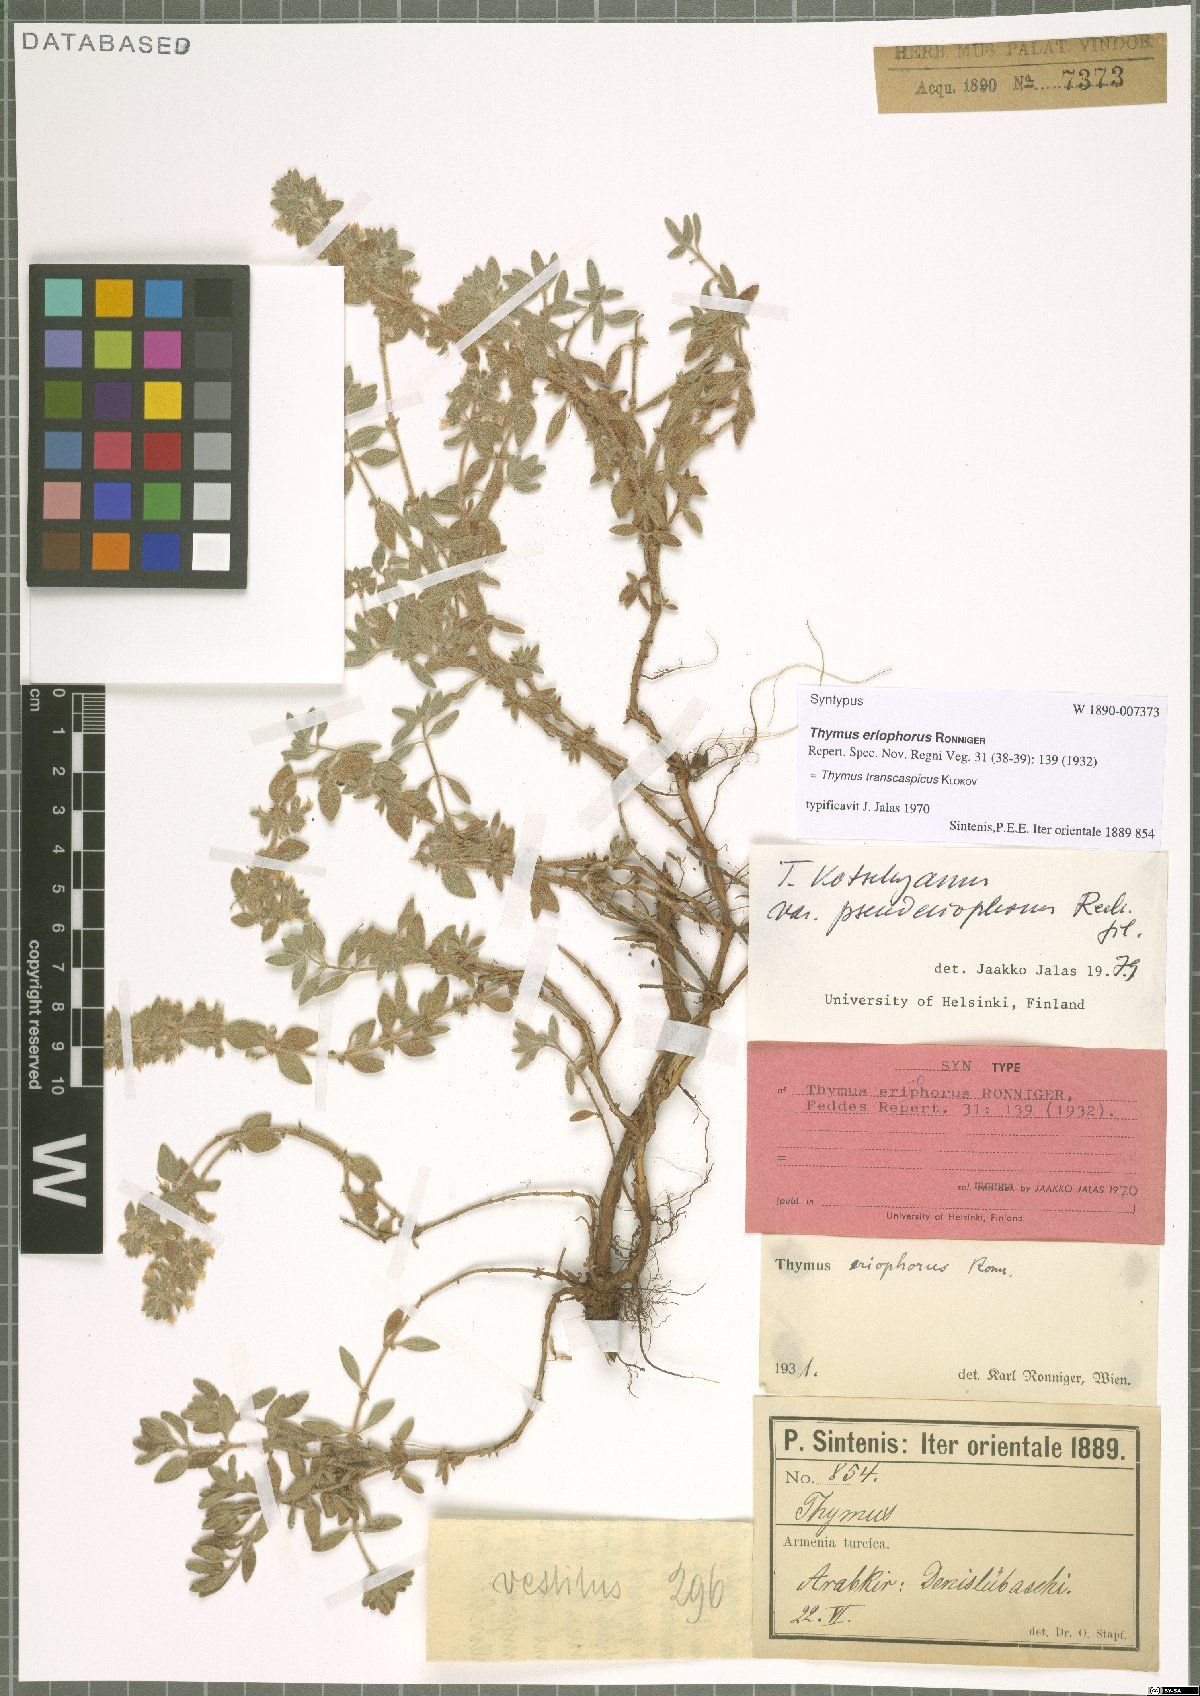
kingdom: Plantae
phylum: Tracheophyta
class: Magnoliopsida
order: Lamiales
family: Lamiaceae
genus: Thymus
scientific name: Thymus kotschyanus
